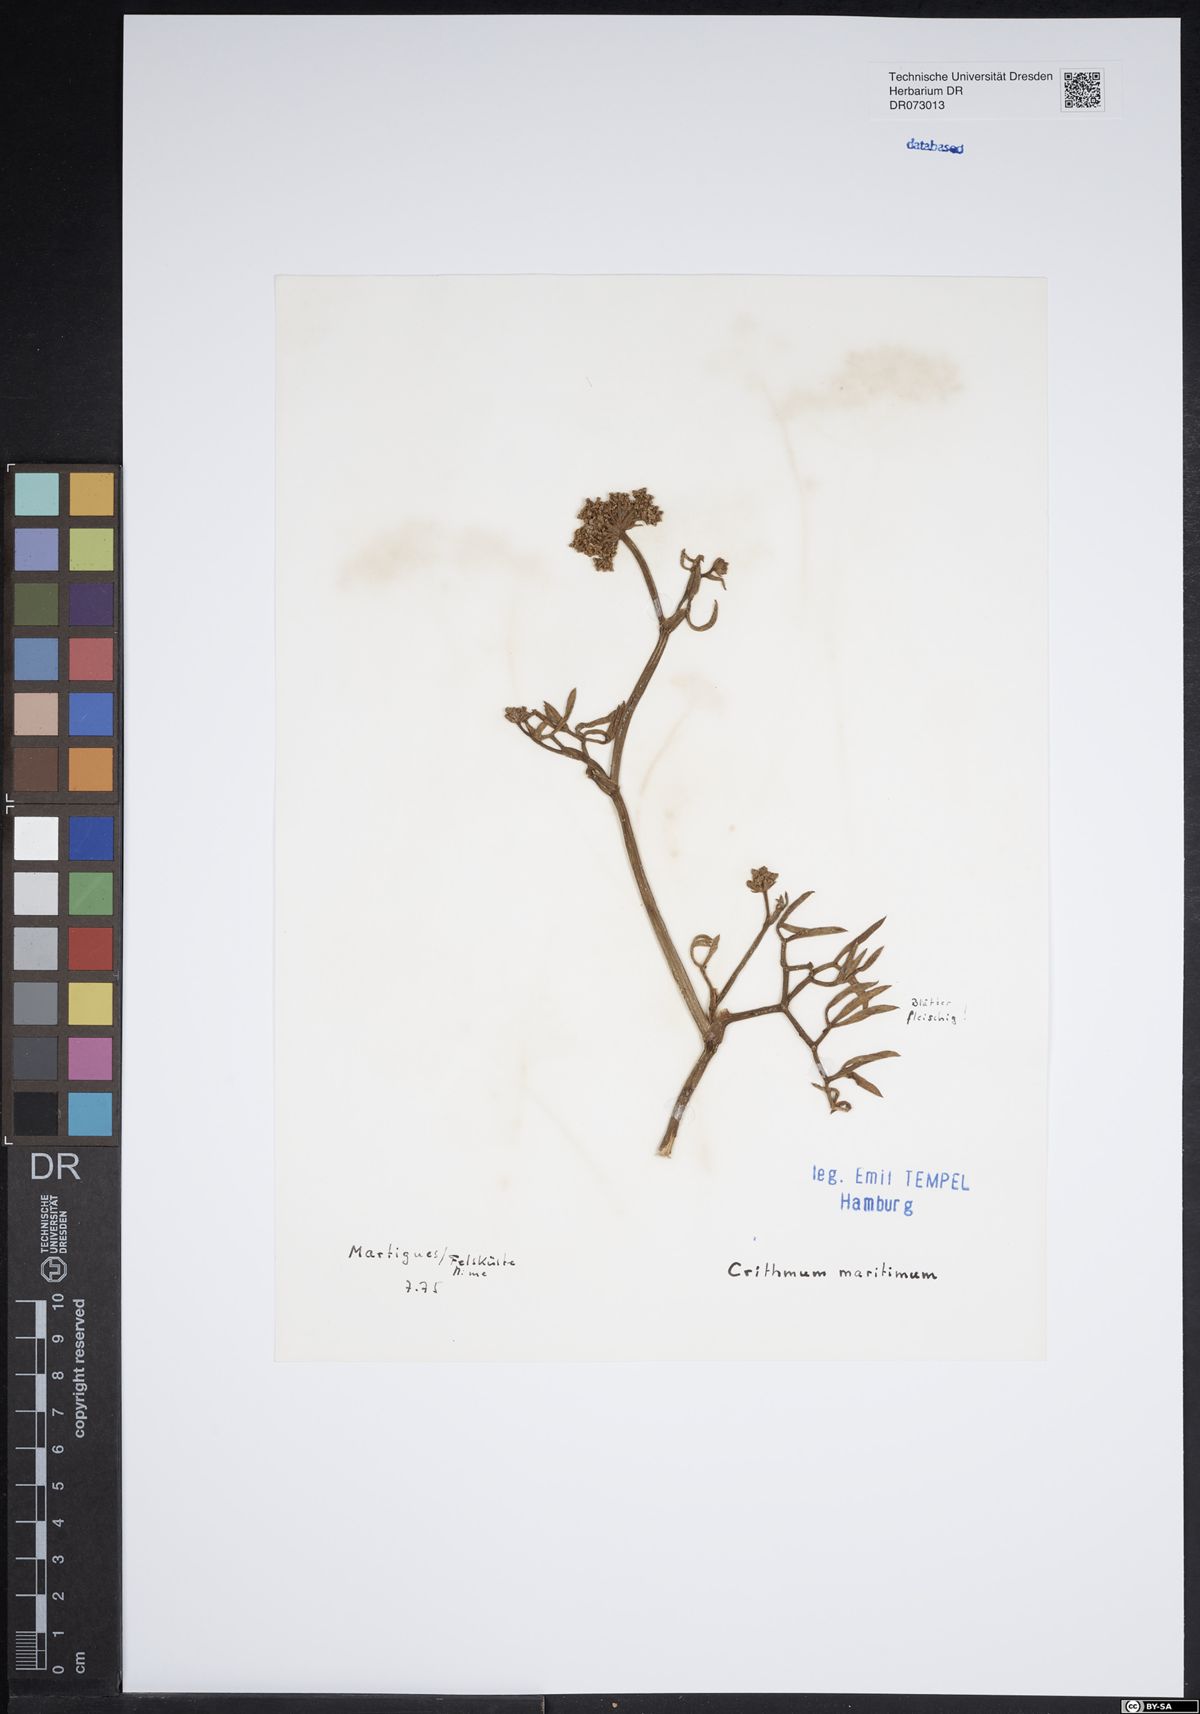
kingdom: Plantae
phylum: Tracheophyta
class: Magnoliopsida
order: Apiales
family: Apiaceae
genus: Drusa
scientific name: Drusa glandulosa
